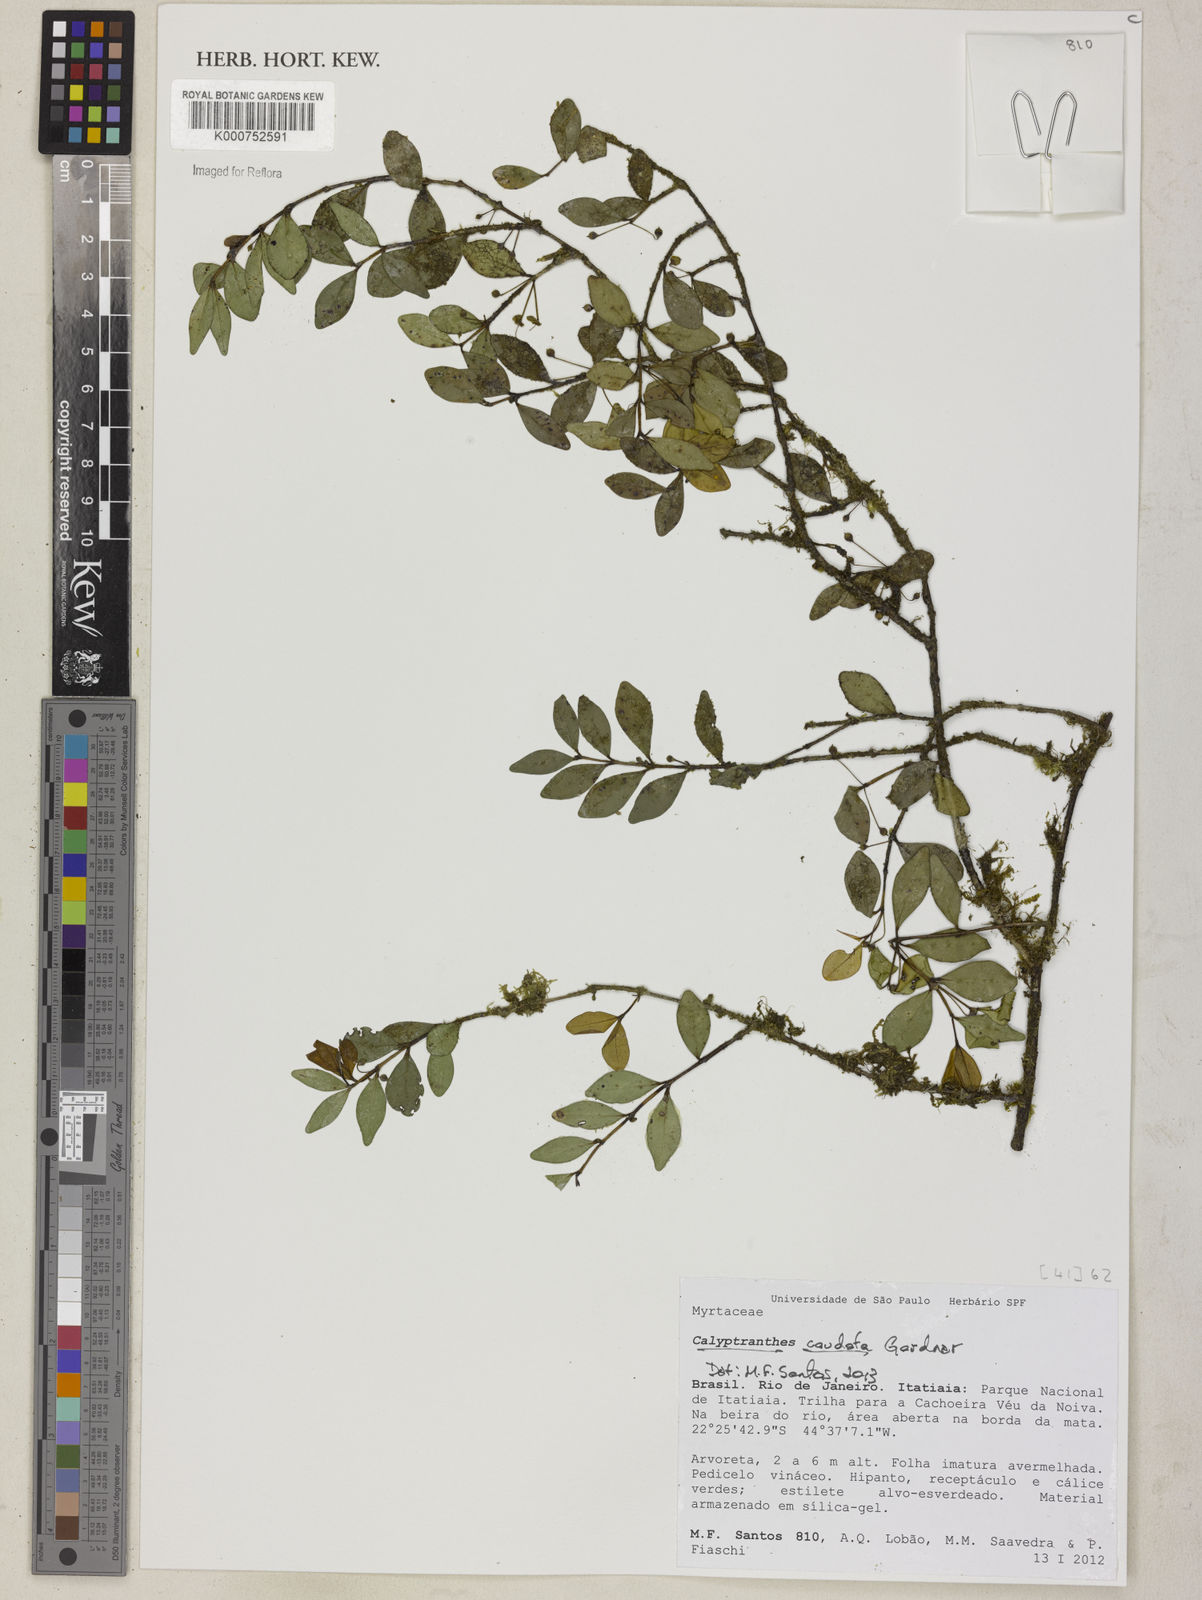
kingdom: Plantae
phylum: Tracheophyta
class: Magnoliopsida
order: Myrtales
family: Myrtaceae
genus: Myrcia
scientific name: Myrcia grammica
